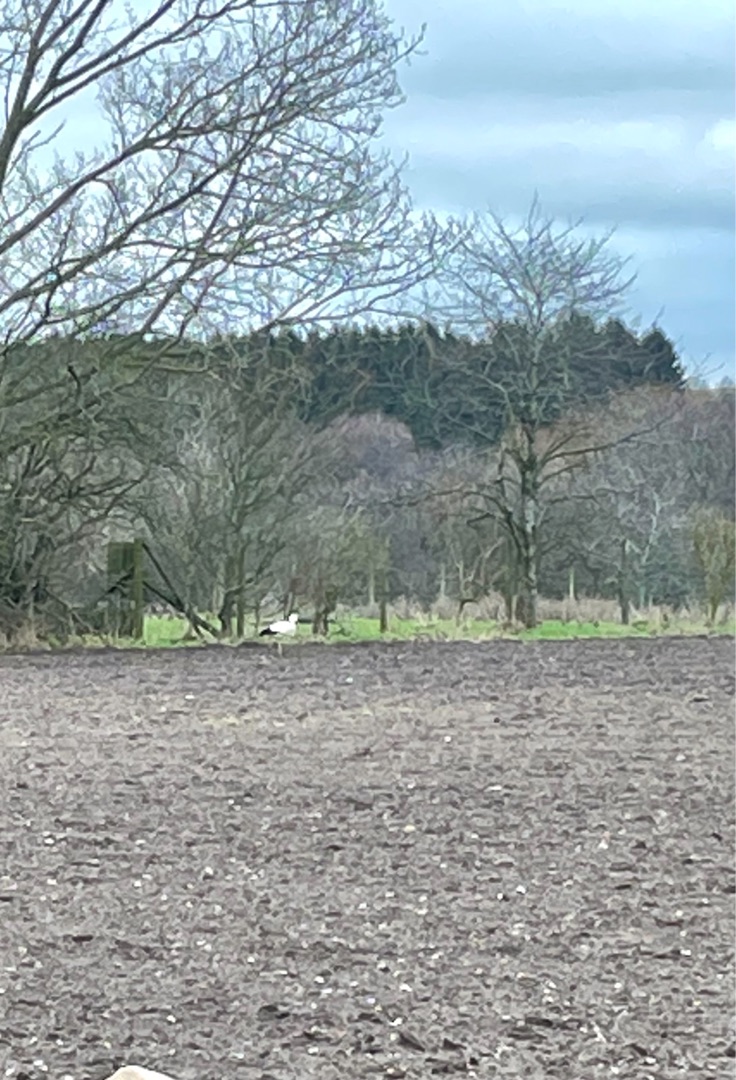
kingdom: Animalia
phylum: Chordata
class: Aves
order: Ciconiiformes
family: Ciconiidae
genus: Ciconia
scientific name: Ciconia ciconia
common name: Hvid stork
